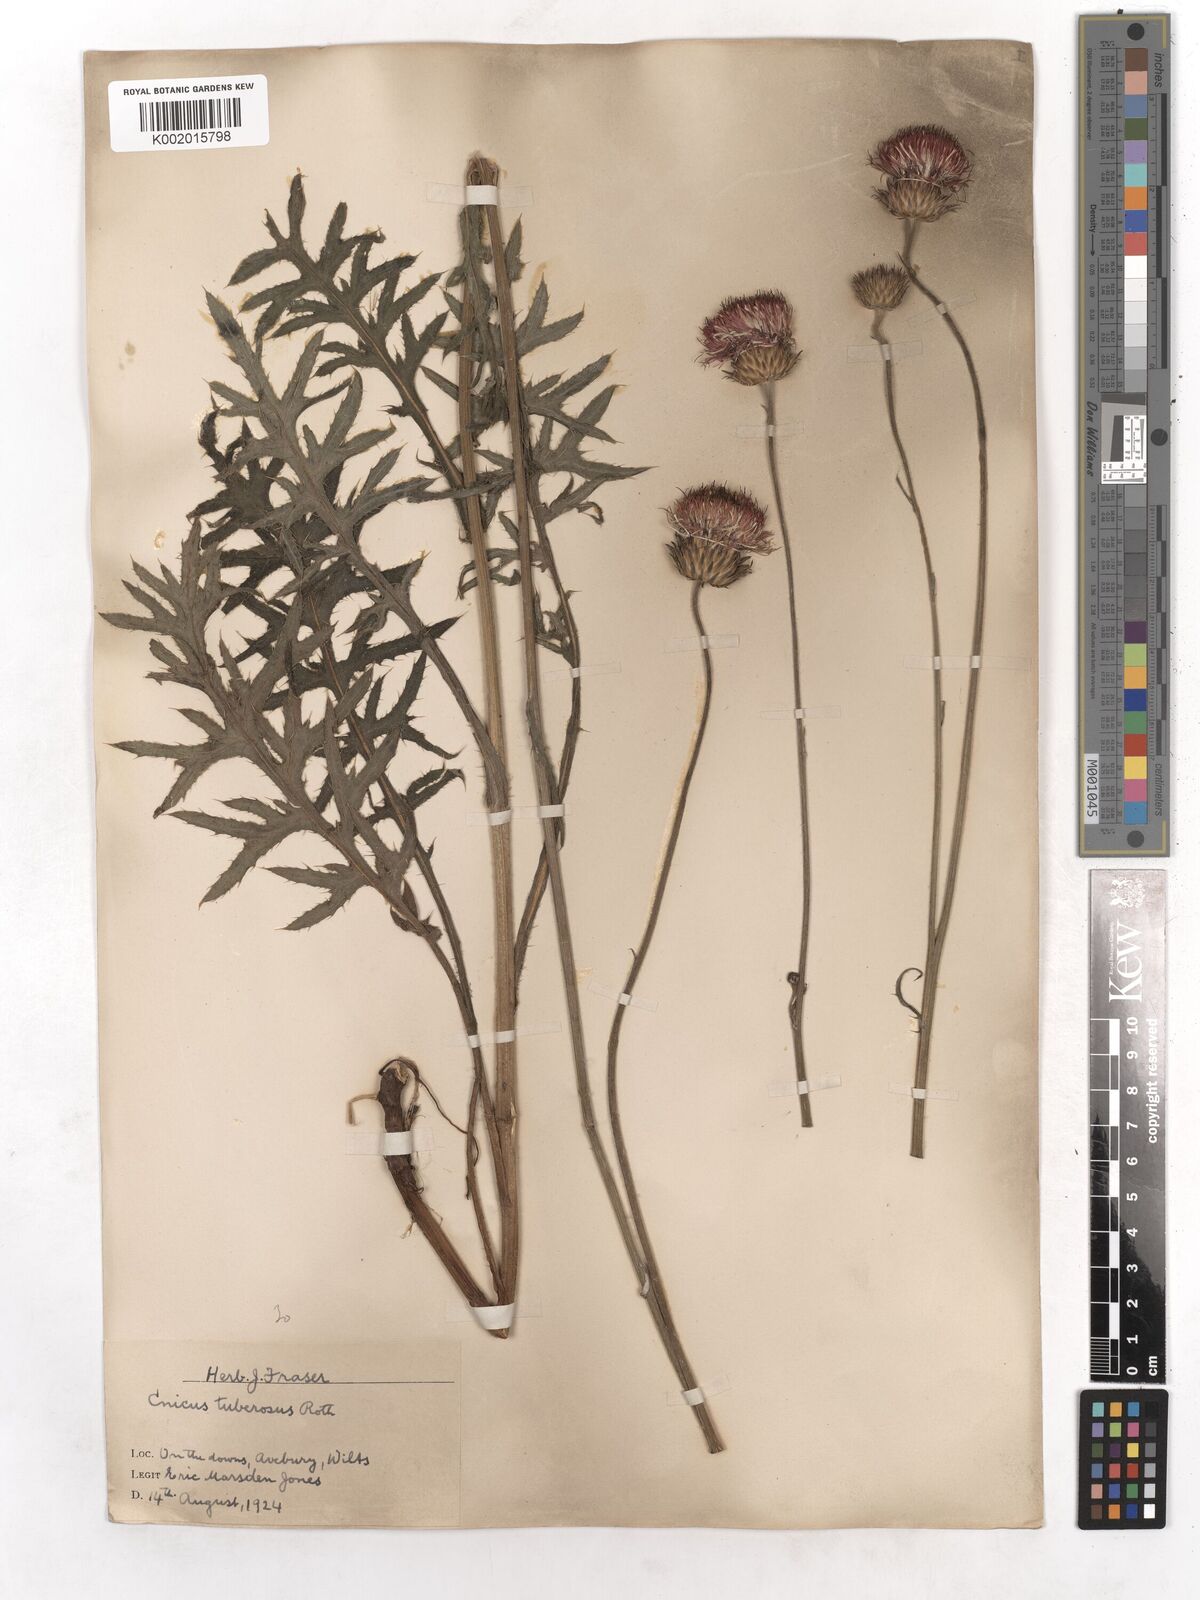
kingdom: Plantae
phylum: Tracheophyta
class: Magnoliopsida
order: Asterales
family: Asteraceae
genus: Cirsium
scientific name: Cirsium tuberosum
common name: Tuberous thistle
